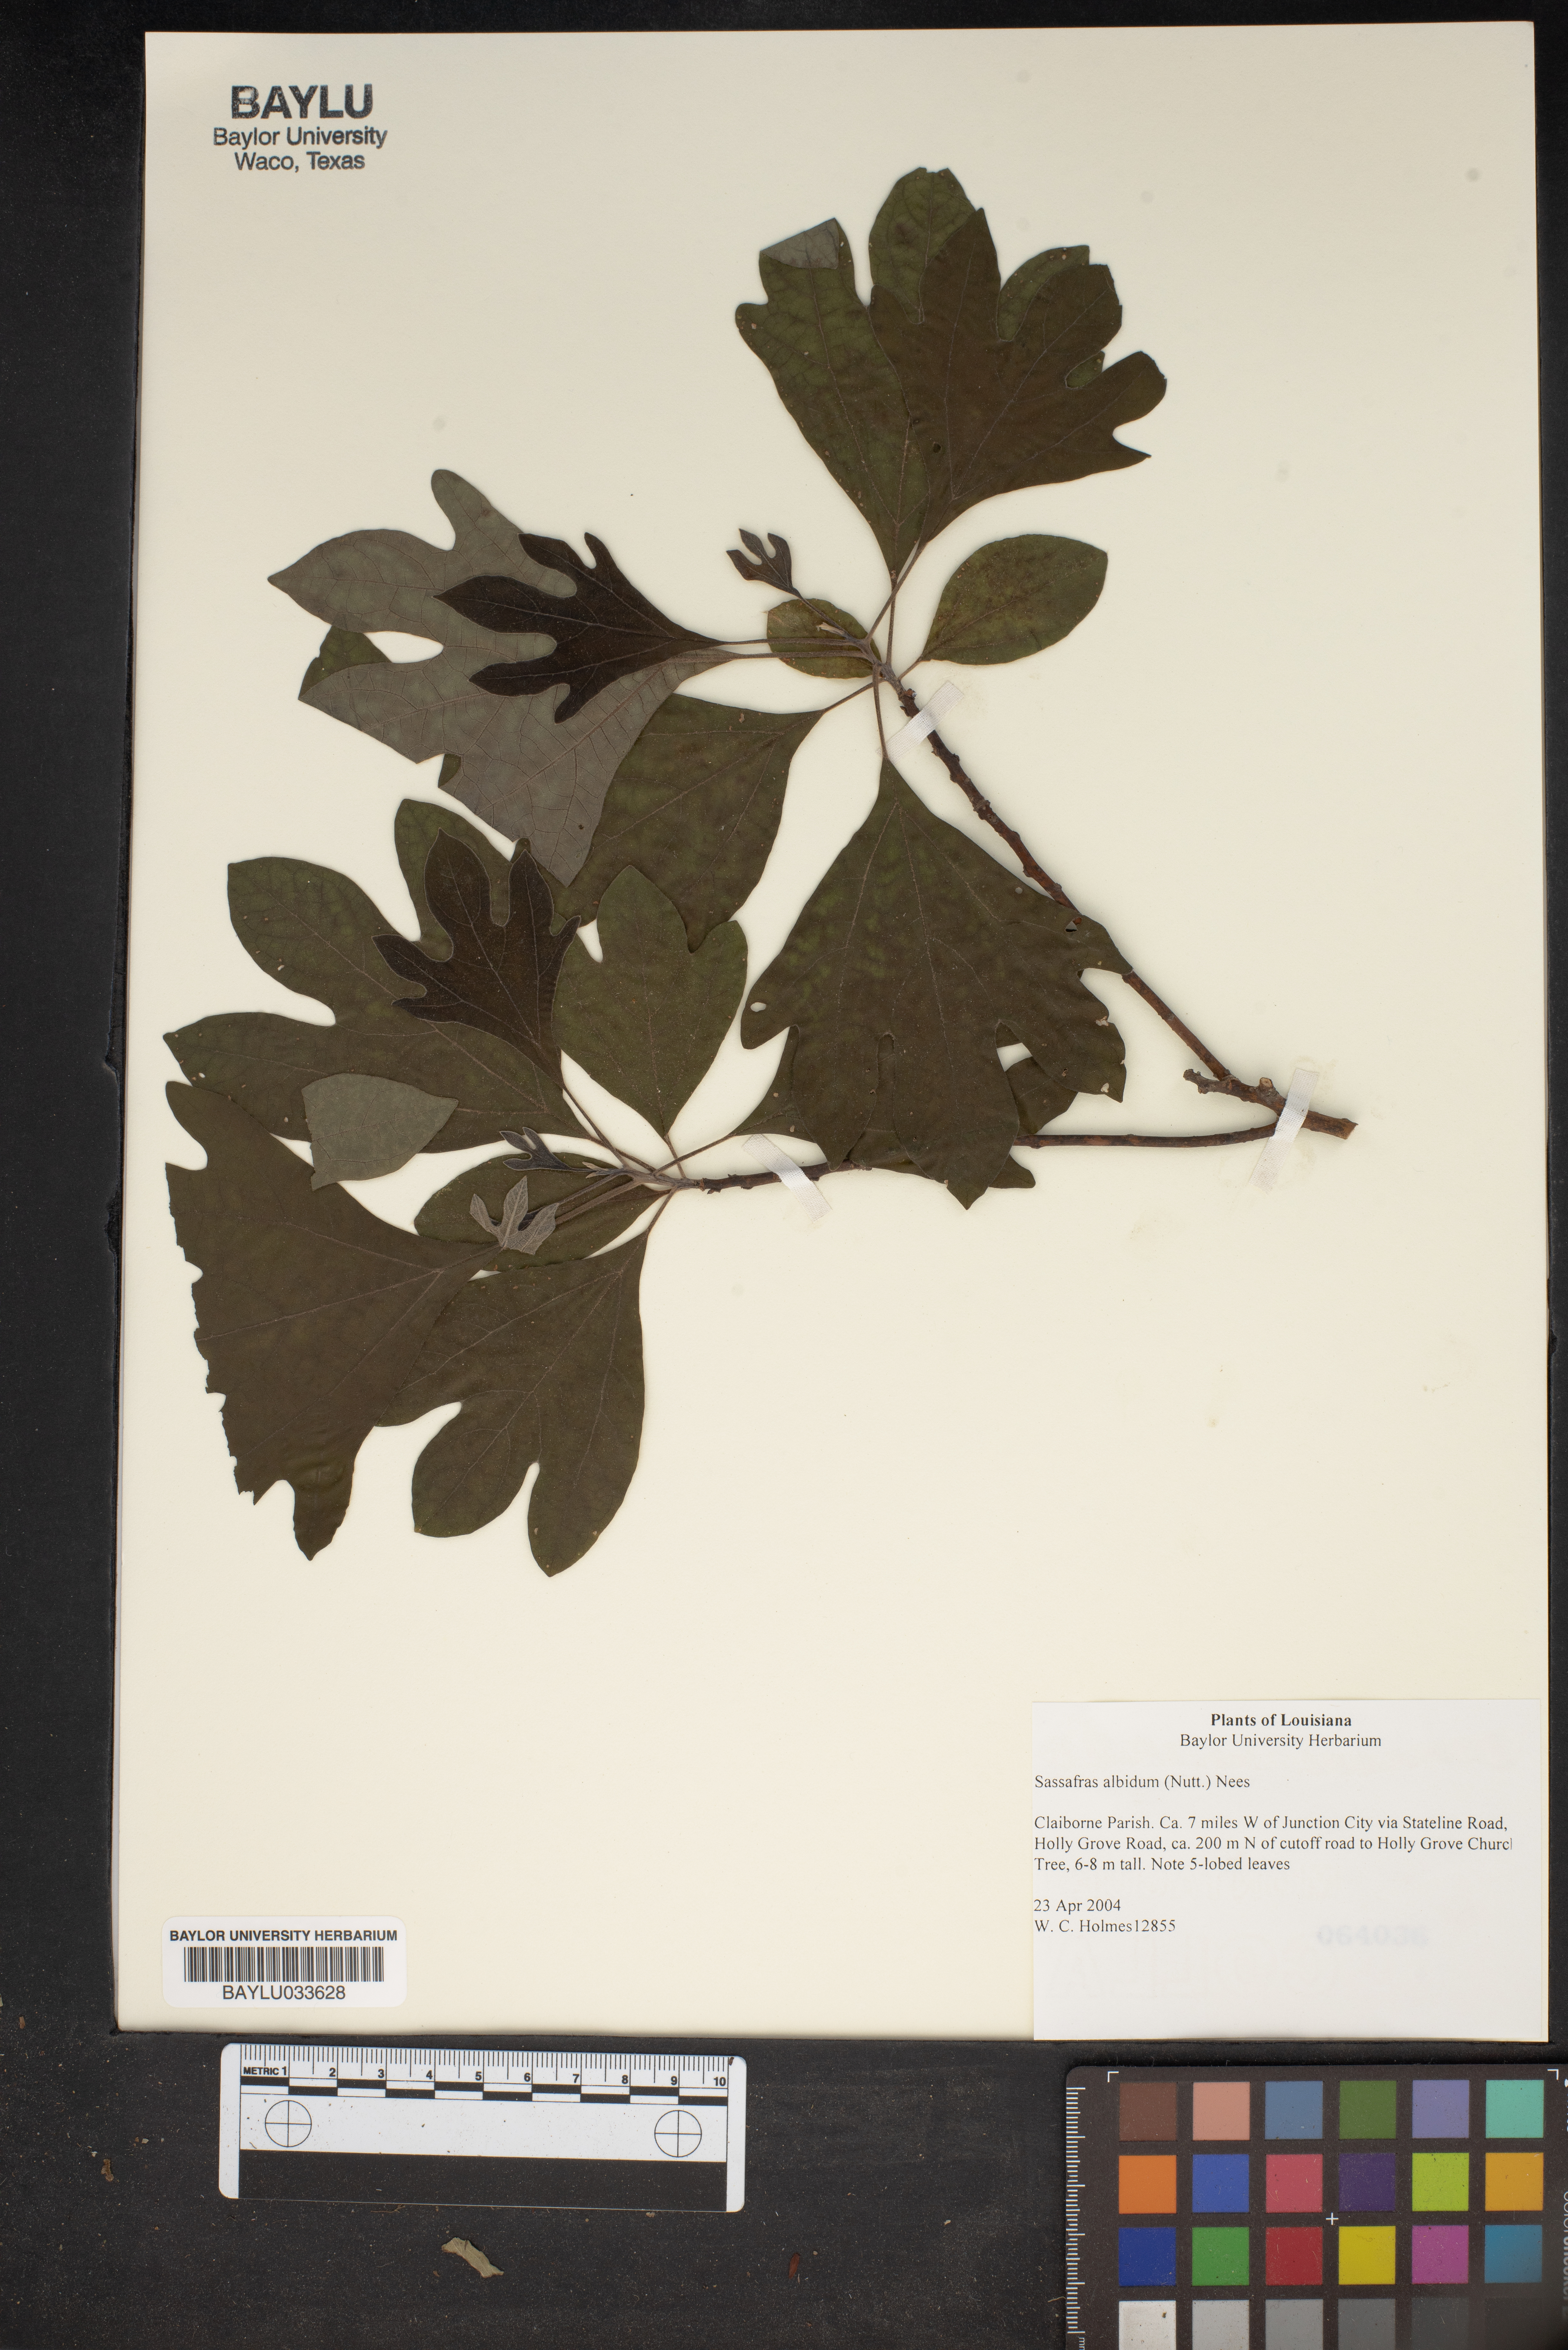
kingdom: Plantae
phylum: Tracheophyta
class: Magnoliopsida
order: Laurales
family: Lauraceae
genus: Sassafras
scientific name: Sassafras albidum
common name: Sassafras
